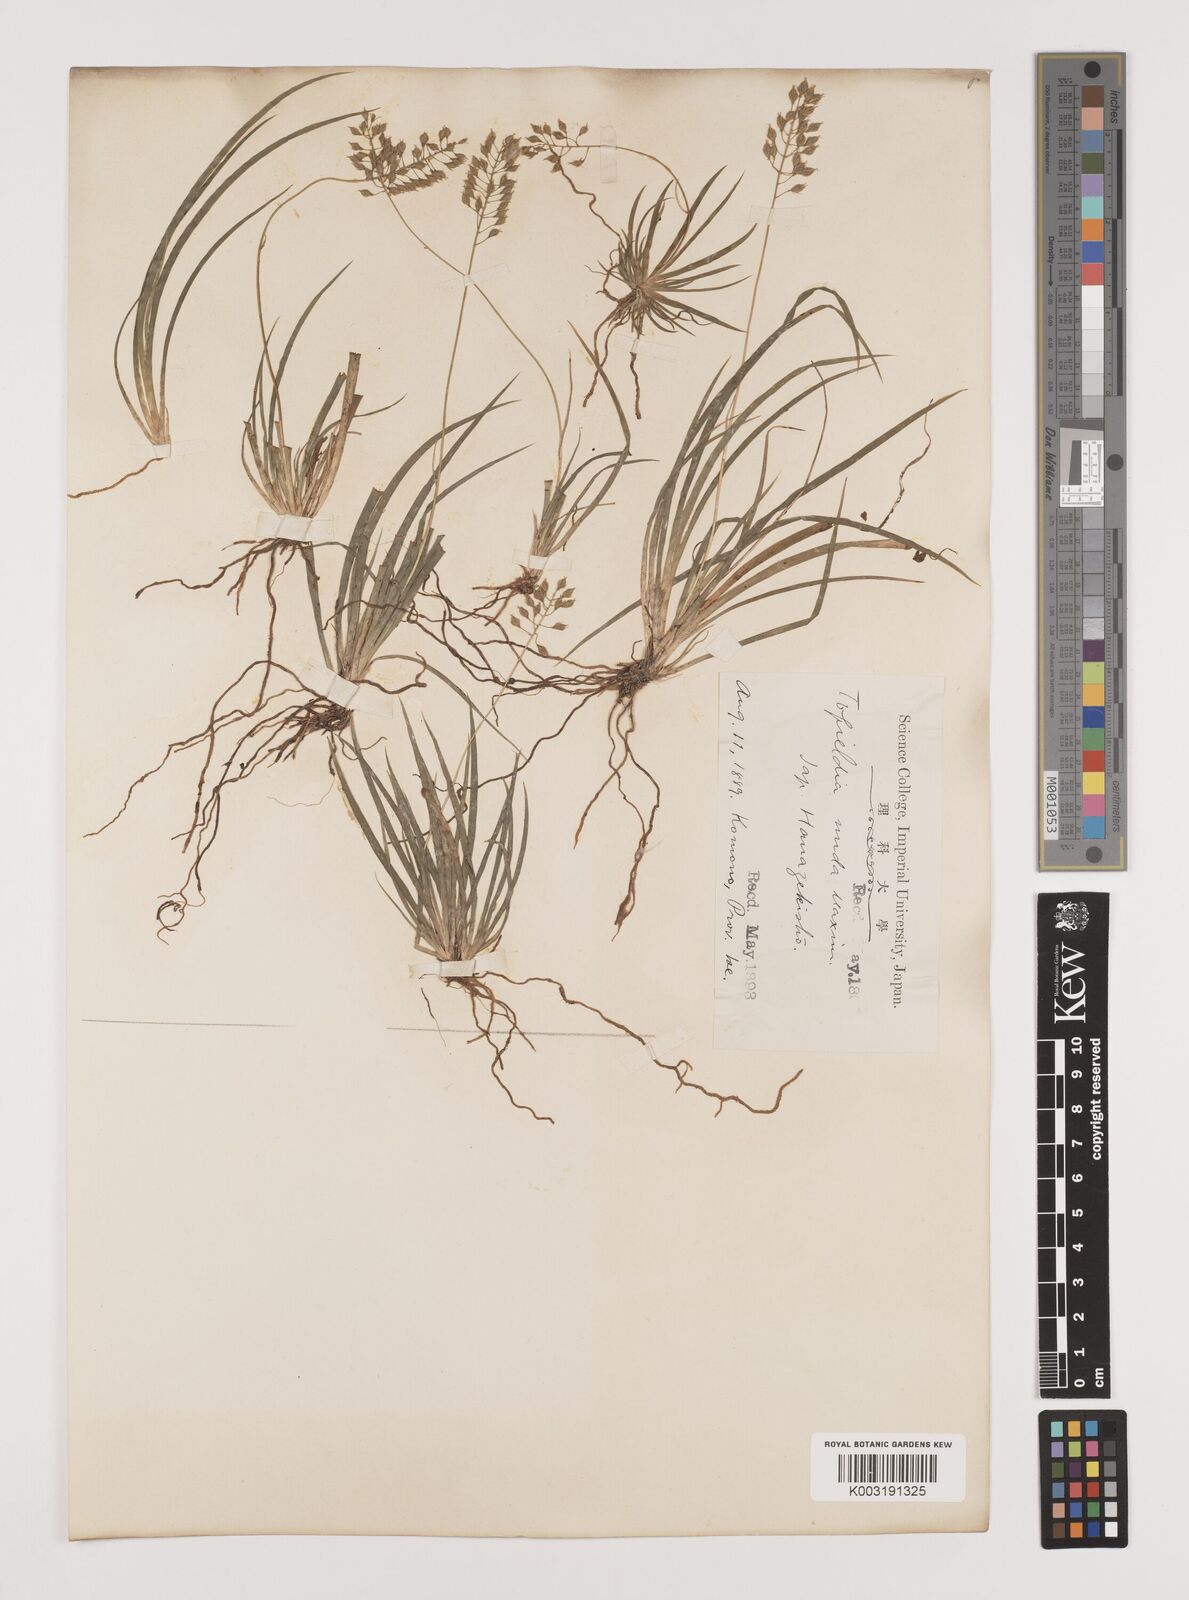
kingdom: Plantae
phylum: Tracheophyta
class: Liliopsida
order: Alismatales
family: Tofieldiaceae
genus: Tofieldia
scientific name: Tofieldia nuda
